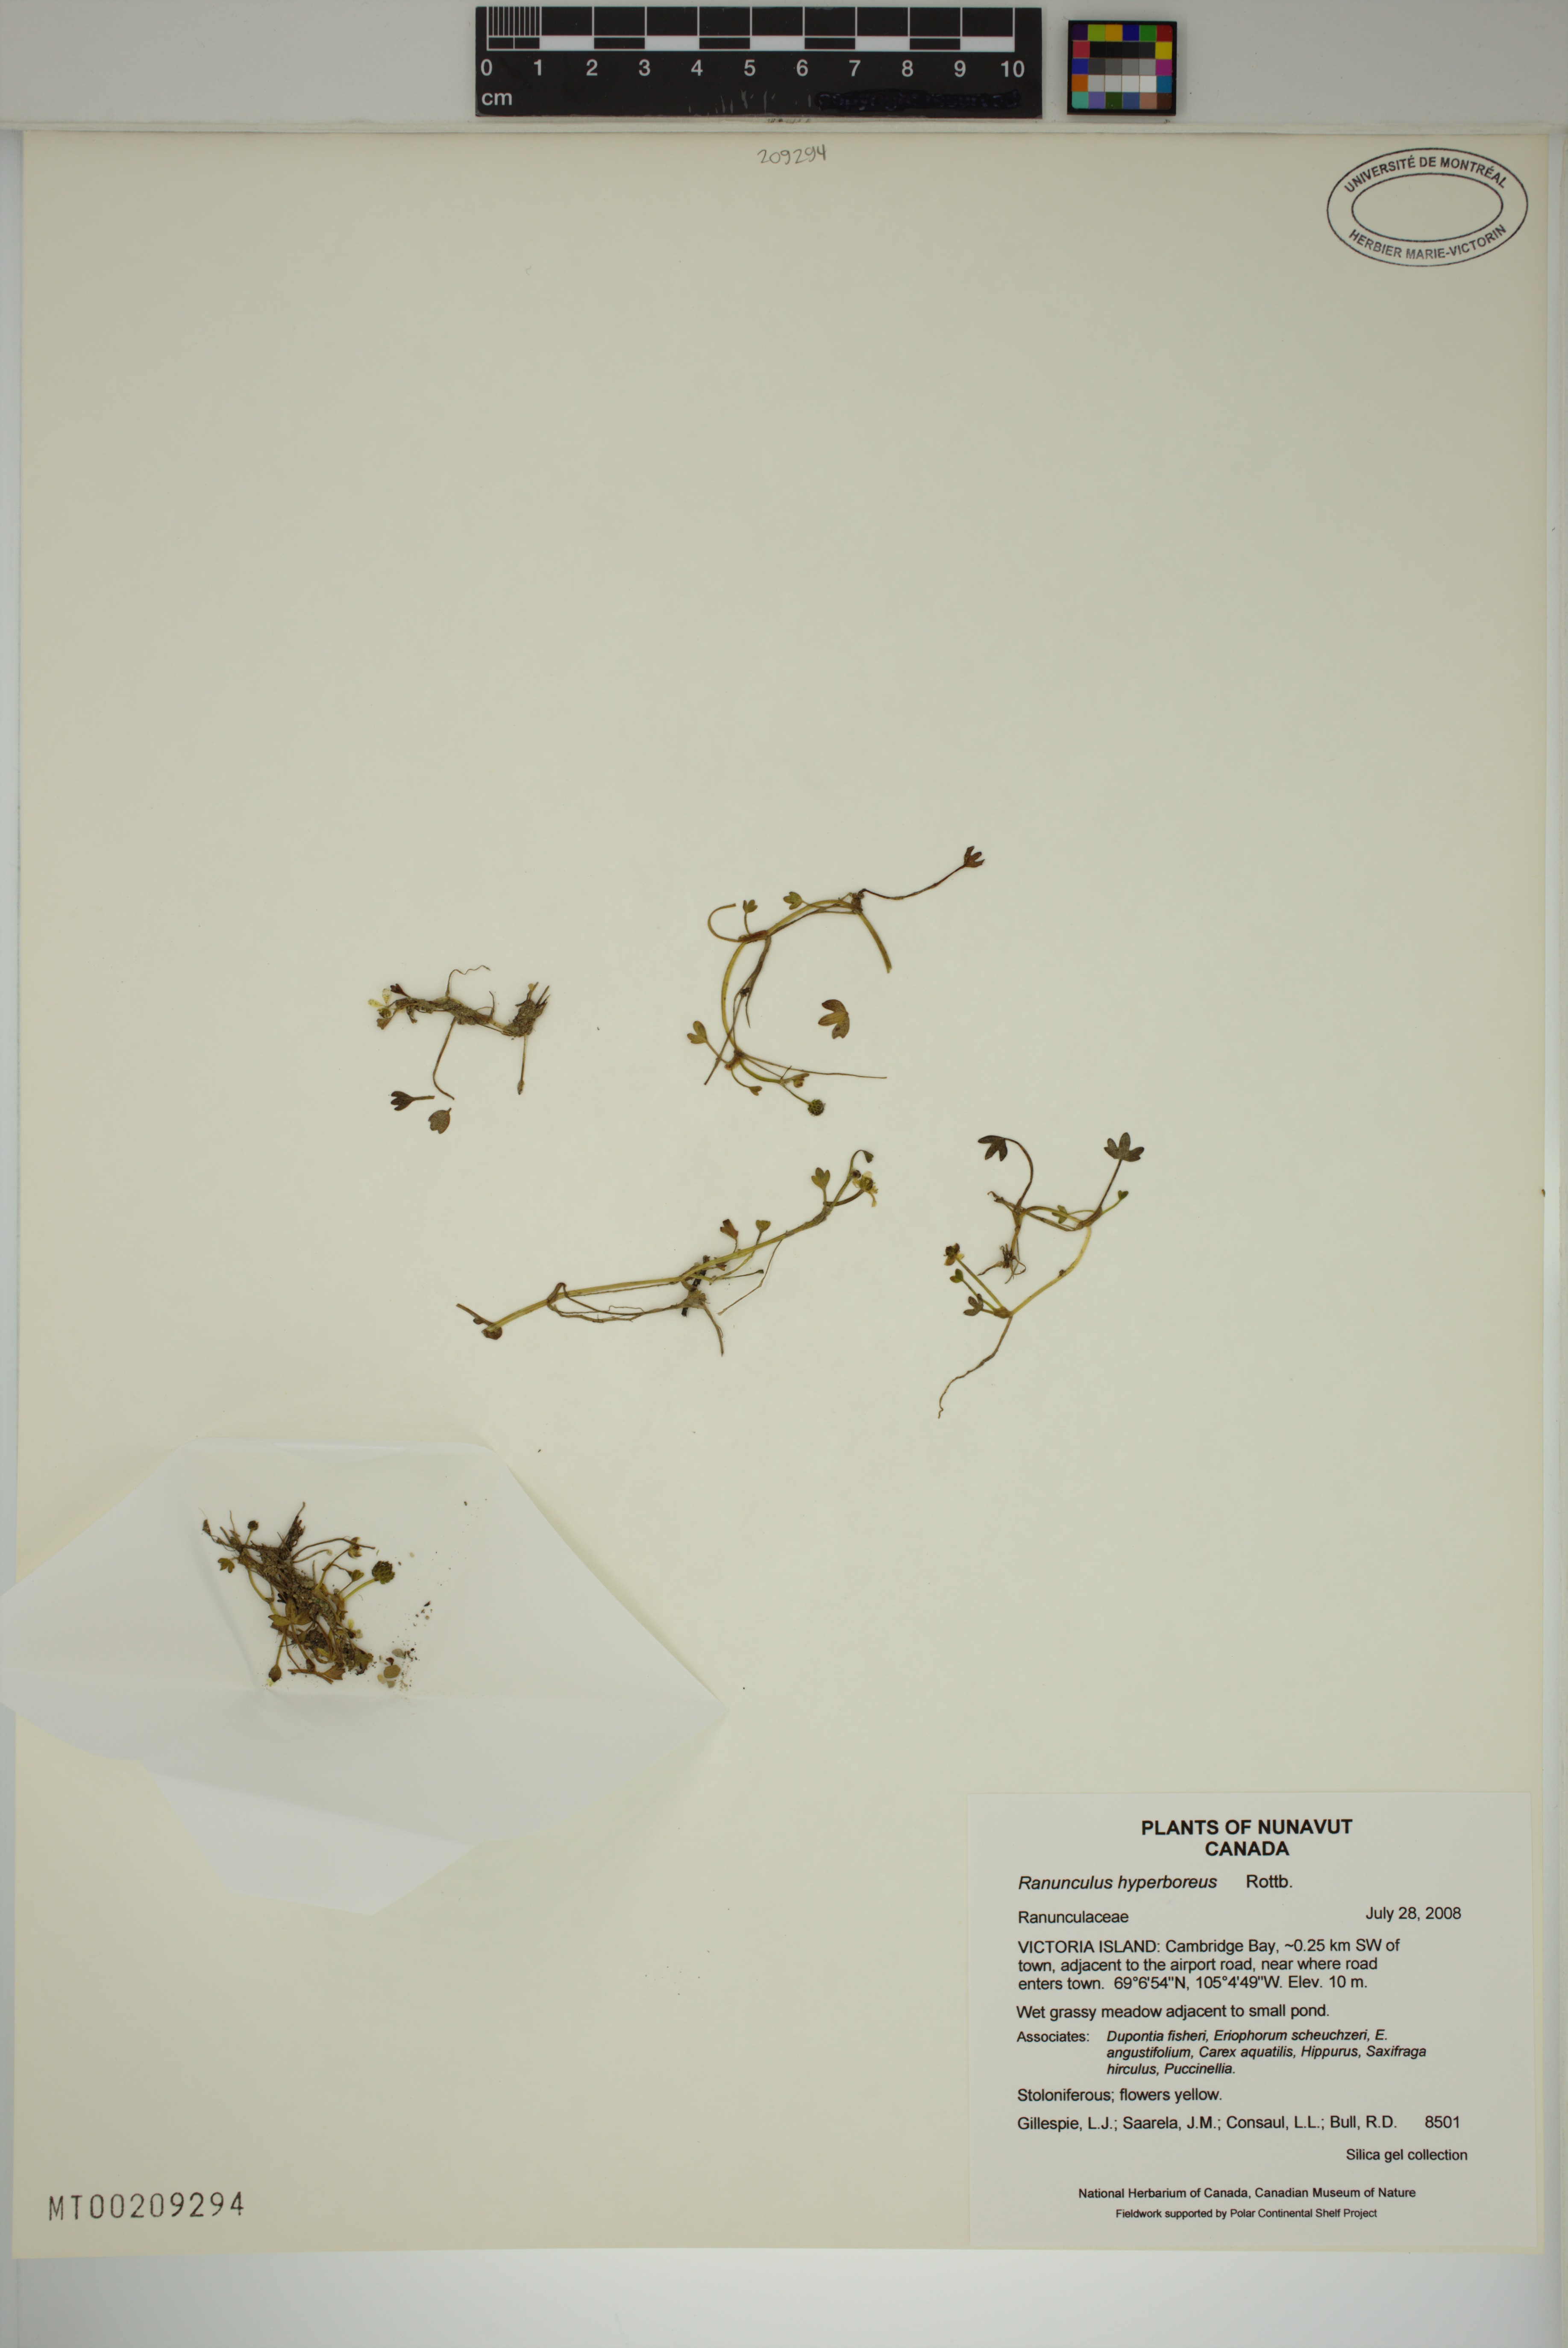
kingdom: Plantae
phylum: Tracheophyta
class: Magnoliopsida
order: Ranunculales
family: Ranunculaceae
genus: Ranunculus
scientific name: Ranunculus hyperboreus
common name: Arctic buttercup
